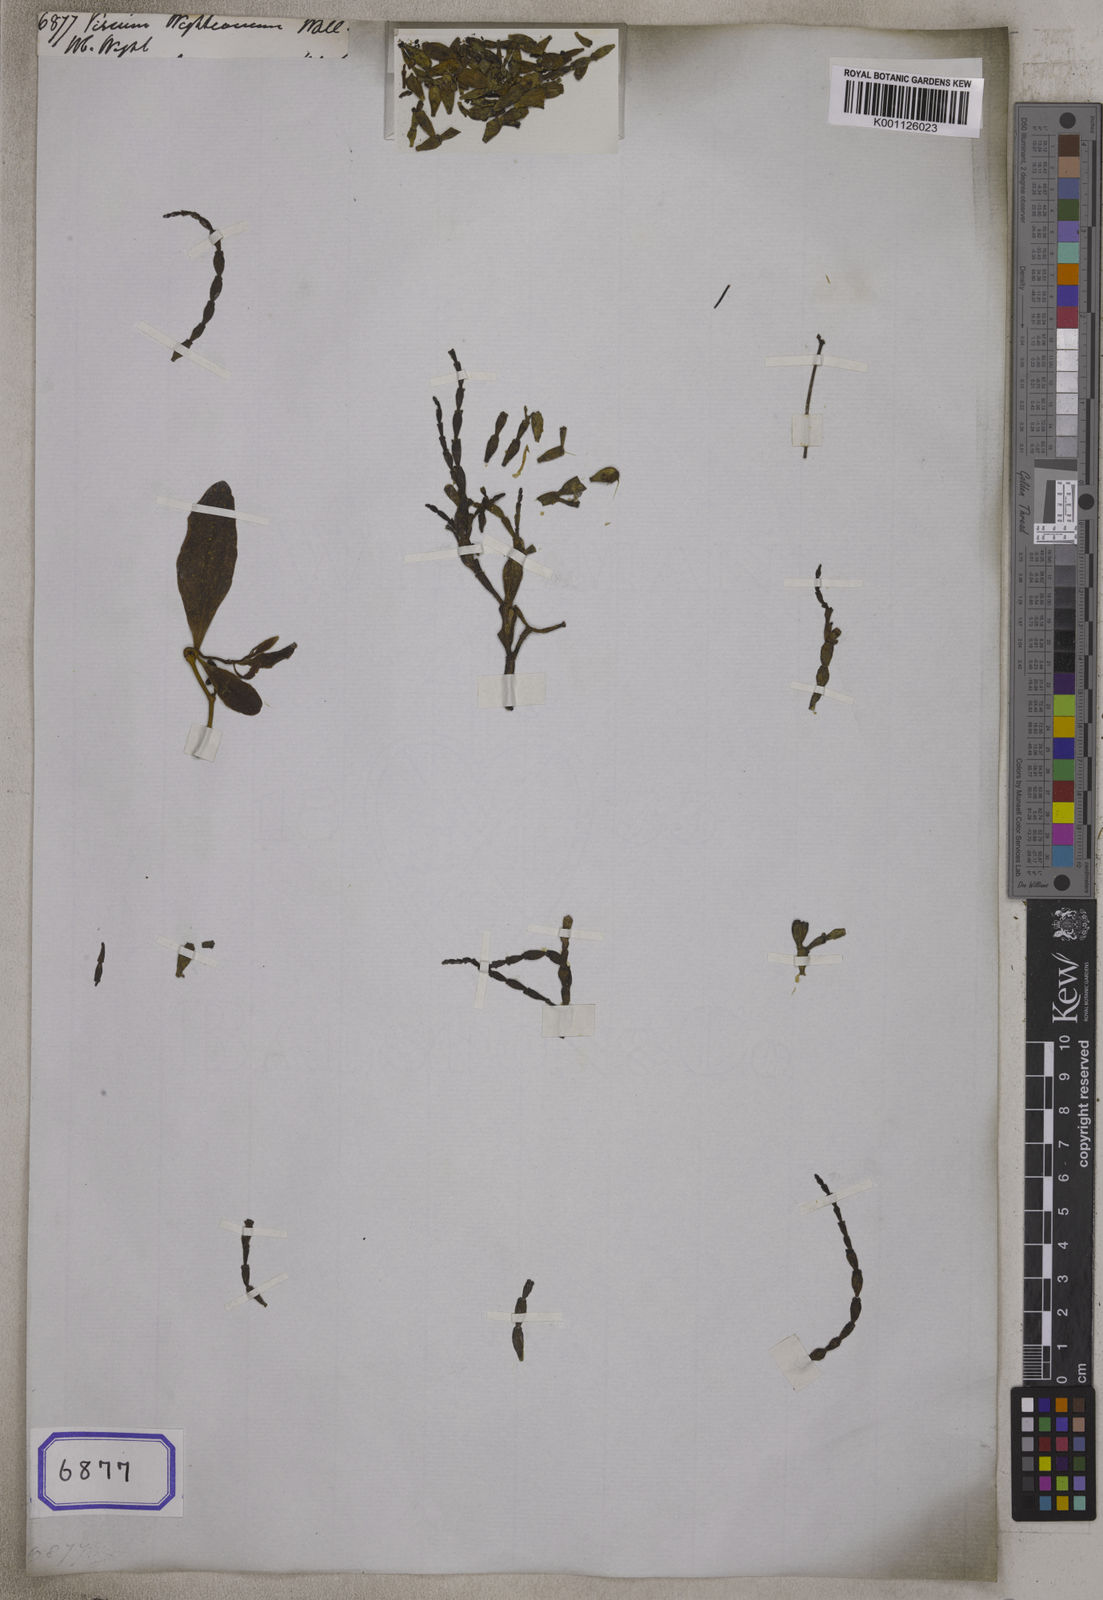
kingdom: Plantae
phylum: Tracheophyta
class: Magnoliopsida
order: Santalales
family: Viscaceae
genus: Viscum
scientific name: Viscum wallichianum
